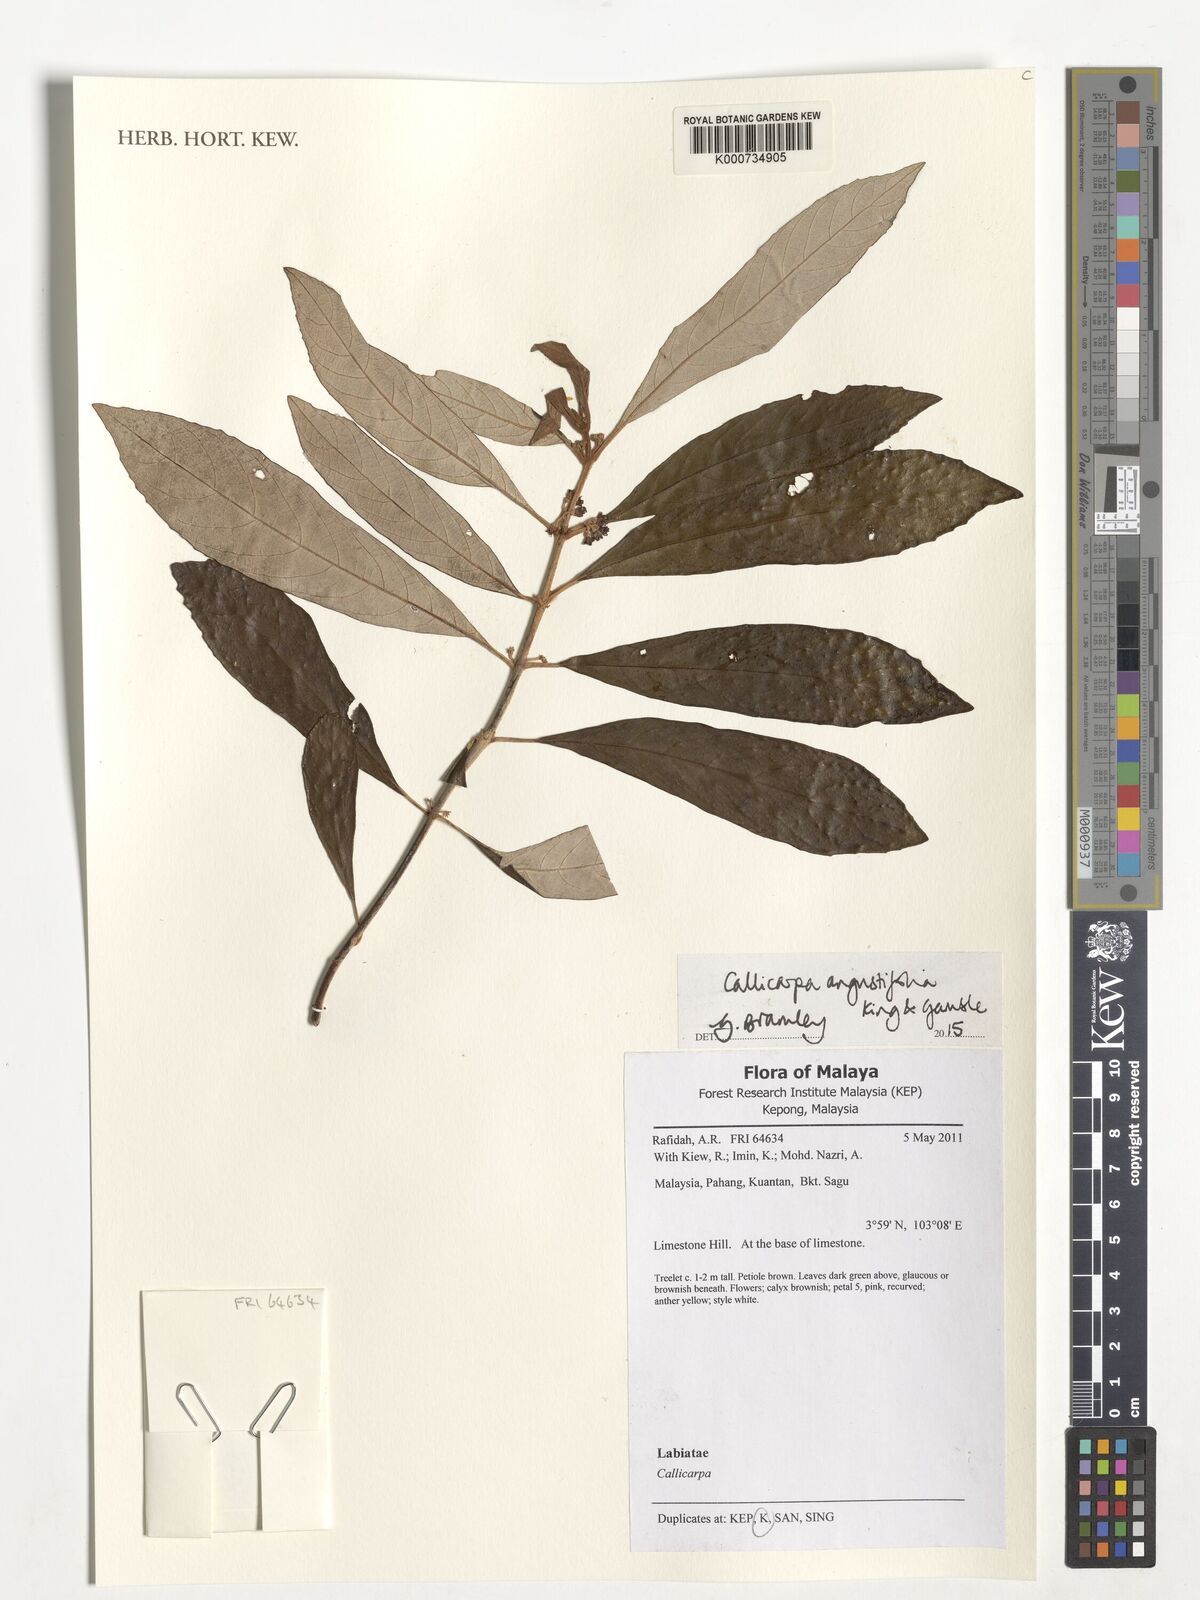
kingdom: Plantae
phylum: Tracheophyta
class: Magnoliopsida
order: Lamiales
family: Lamiaceae
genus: Callicarpa
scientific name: Callicarpa angustifolia
